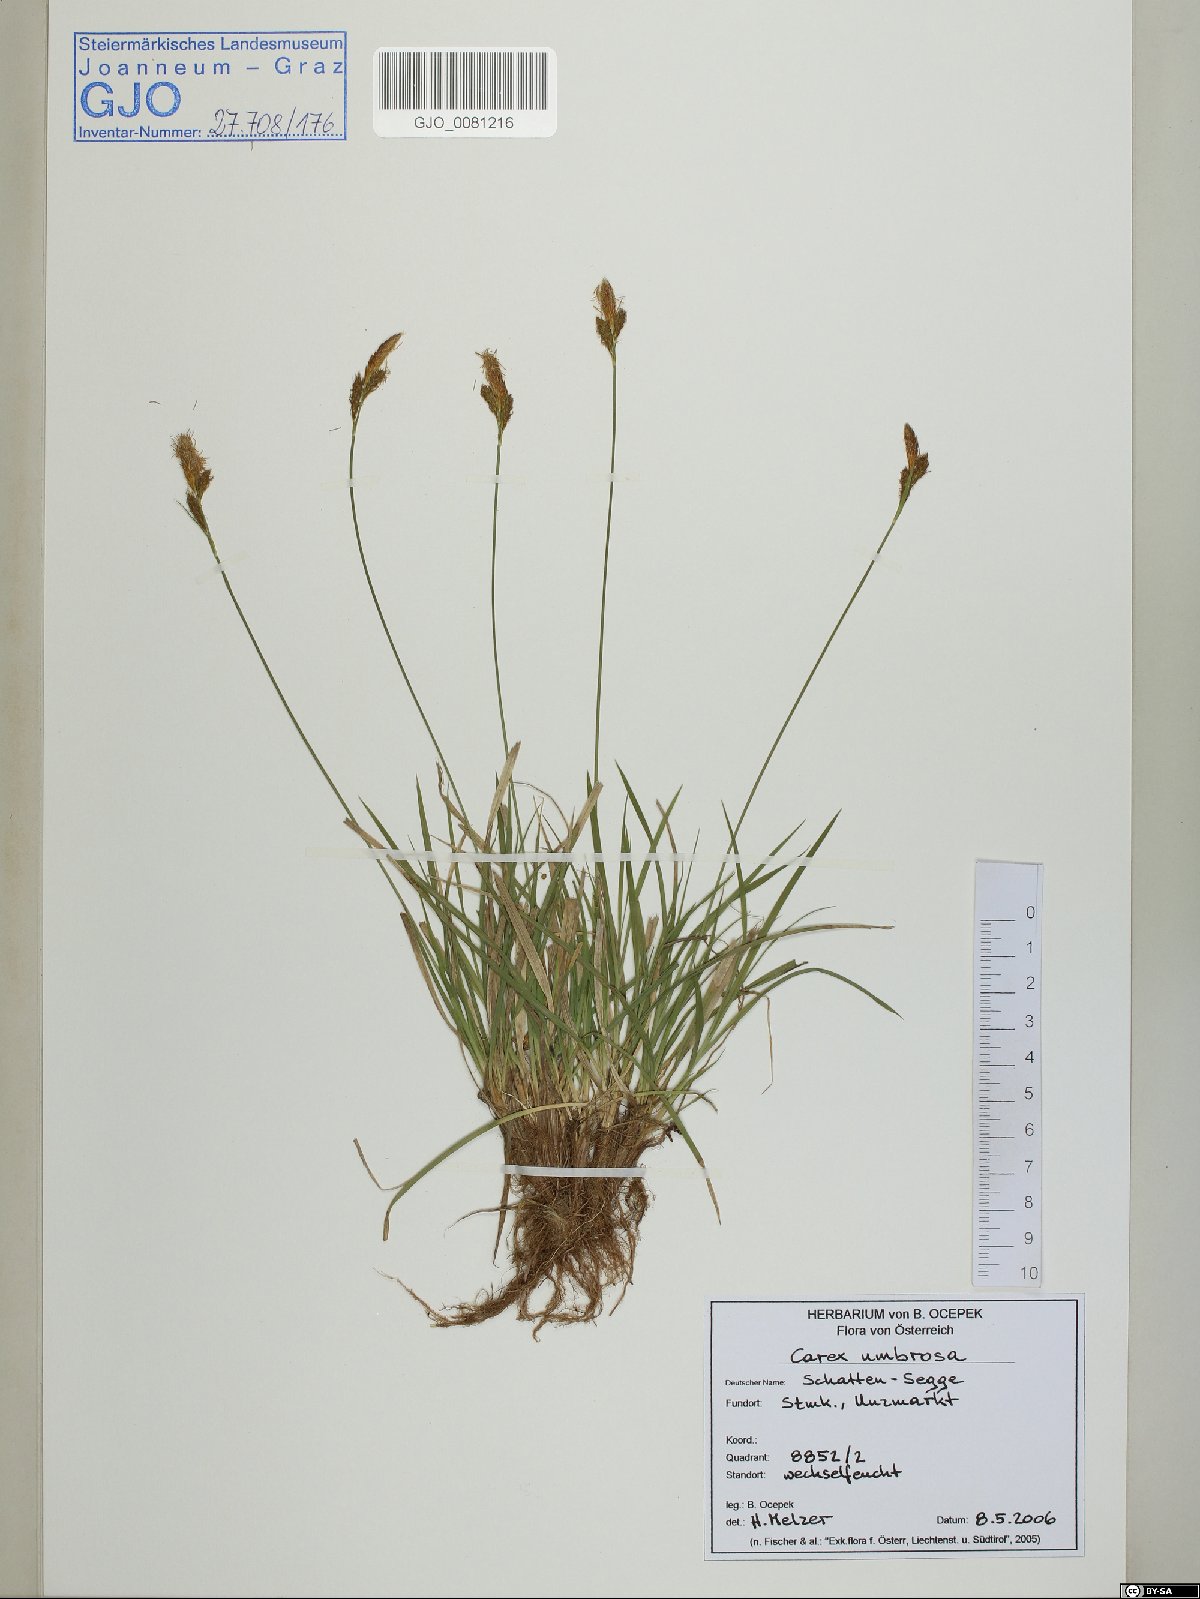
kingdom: Plantae
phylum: Tracheophyta
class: Liliopsida
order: Poales
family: Cyperaceae
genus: Carex
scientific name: Carex umbrosa
